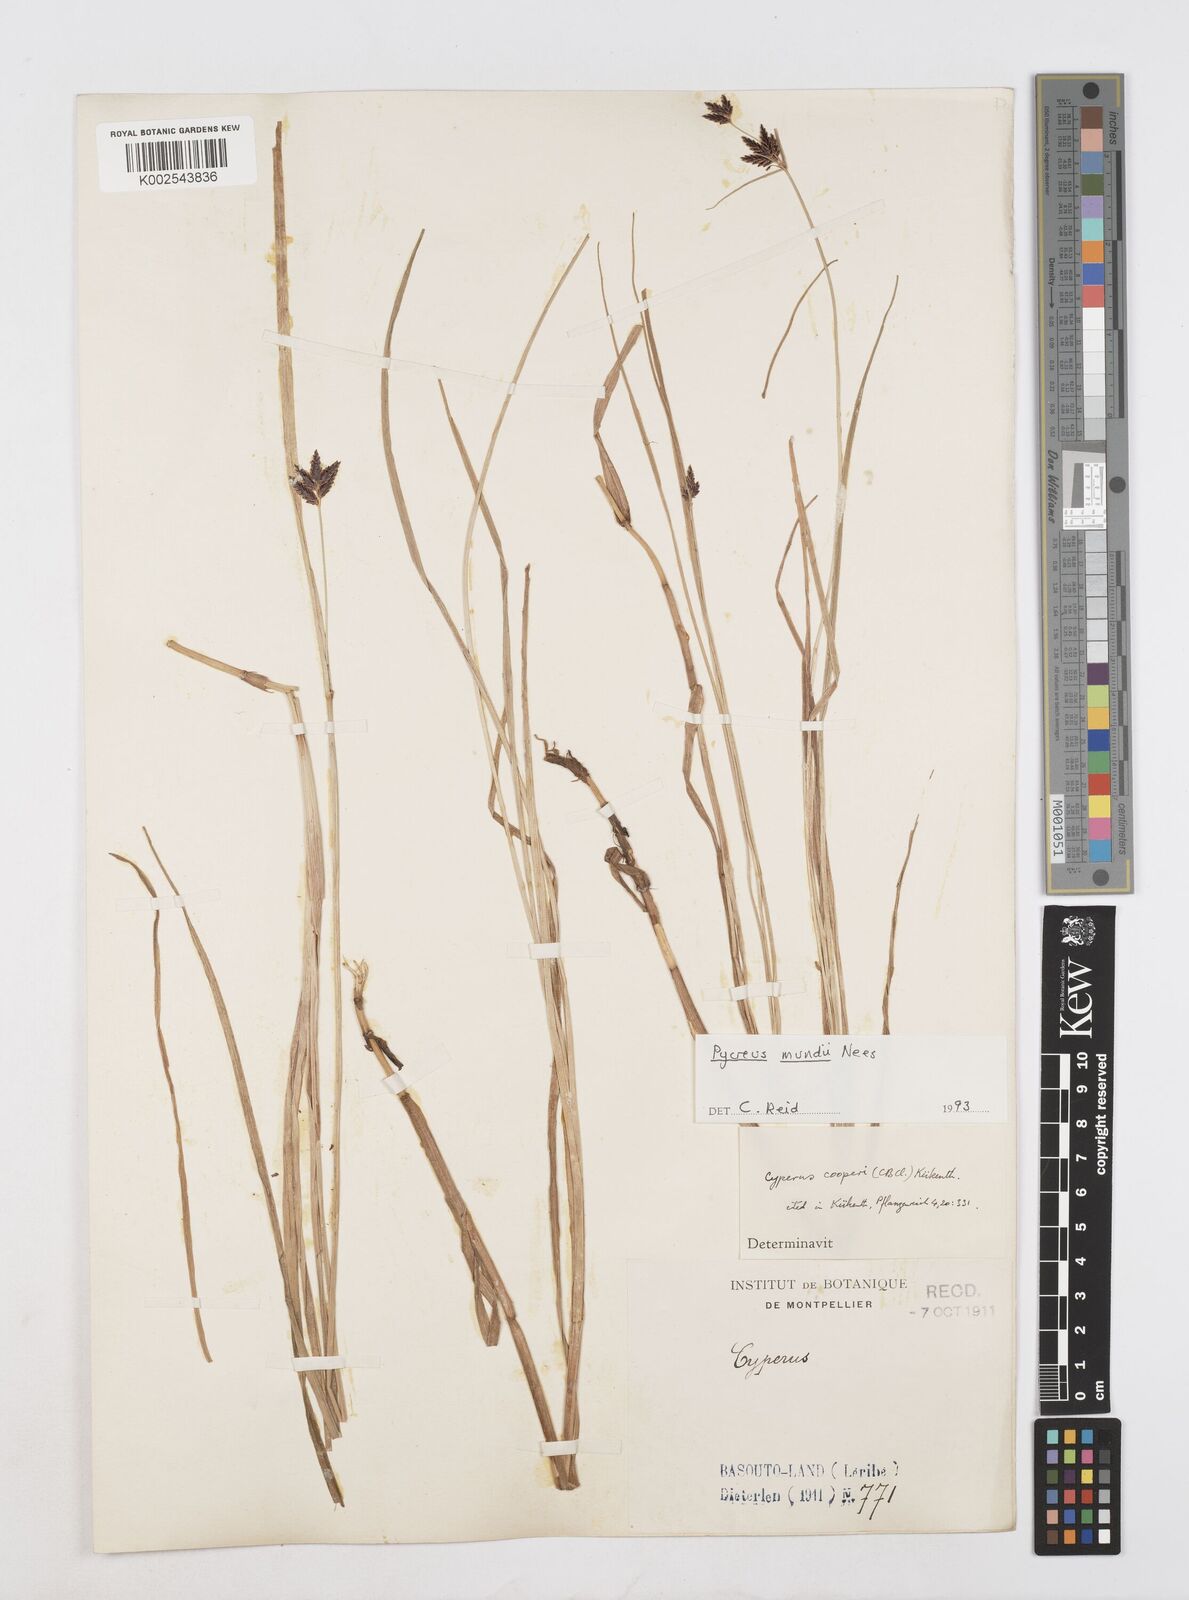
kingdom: Plantae
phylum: Tracheophyta
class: Liliopsida
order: Poales
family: Cyperaceae
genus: Cyperus
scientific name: Cyperus mundii
